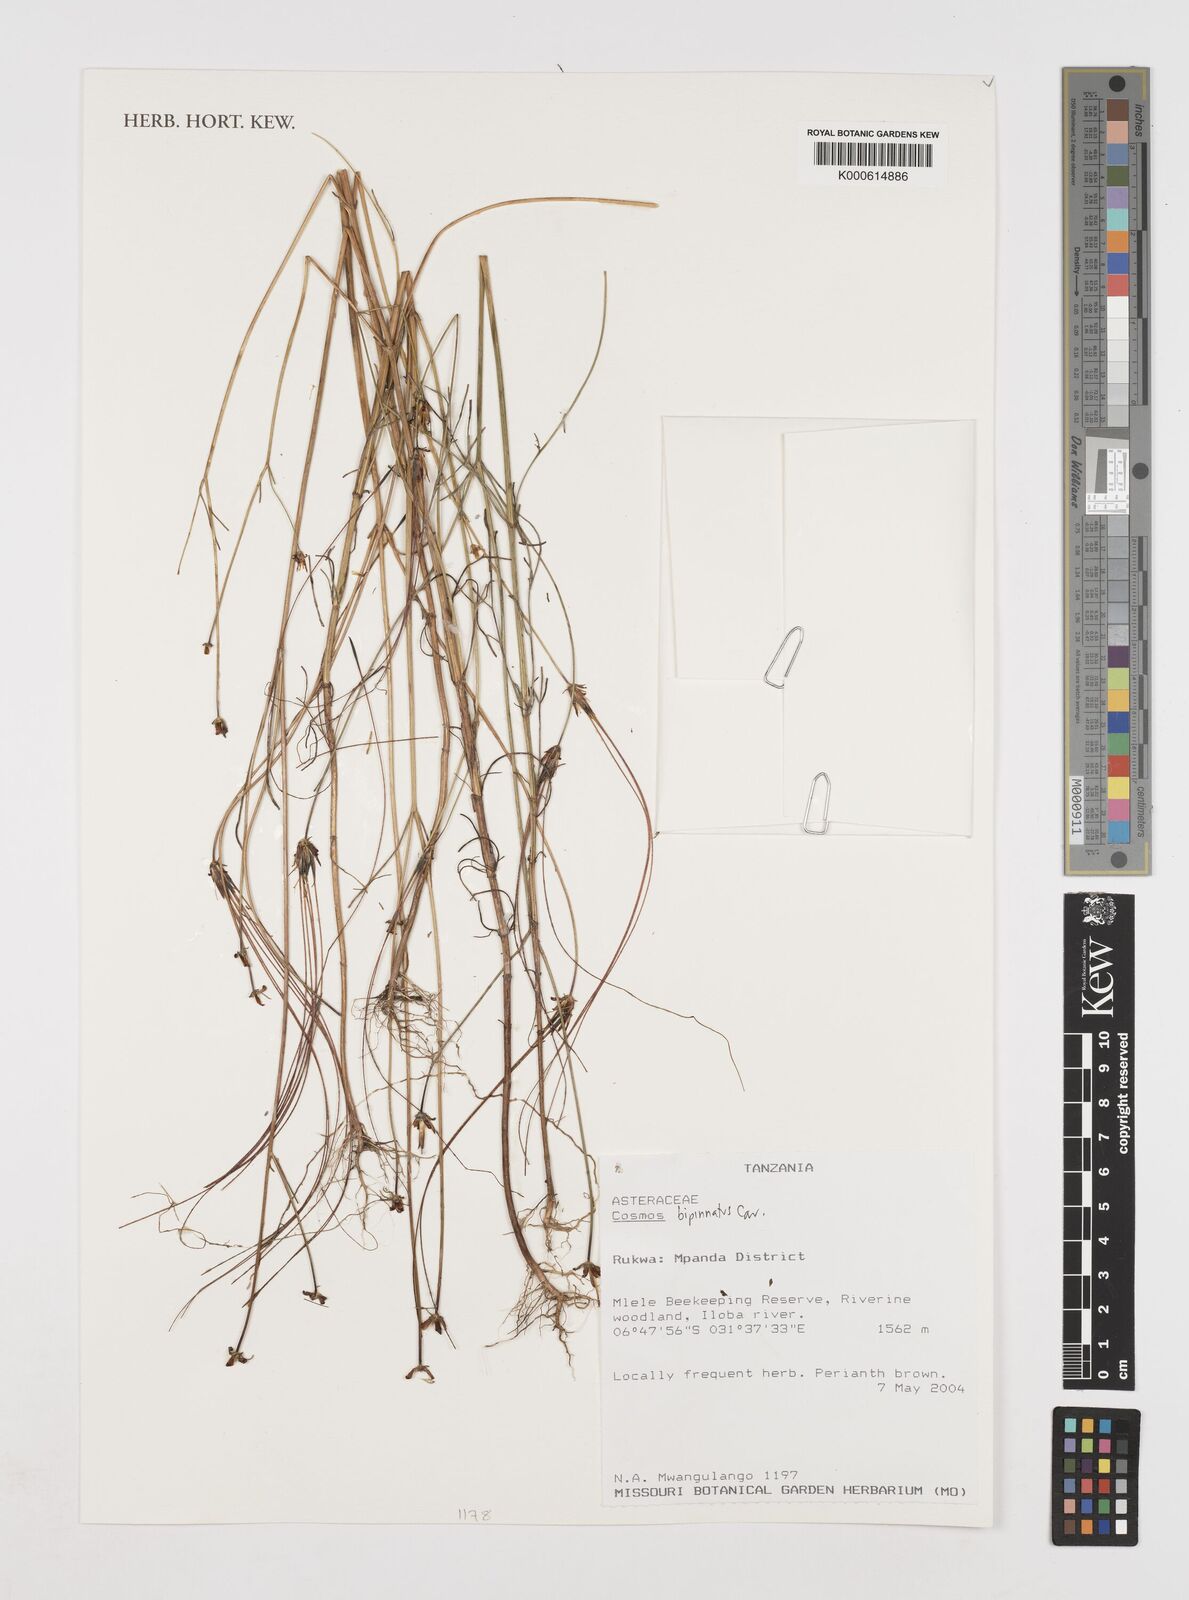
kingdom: Plantae
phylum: Tracheophyta
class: Magnoliopsida
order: Asterales
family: Asteraceae
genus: Cosmos
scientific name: Cosmos bipinnatus
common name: Garden cosmos
